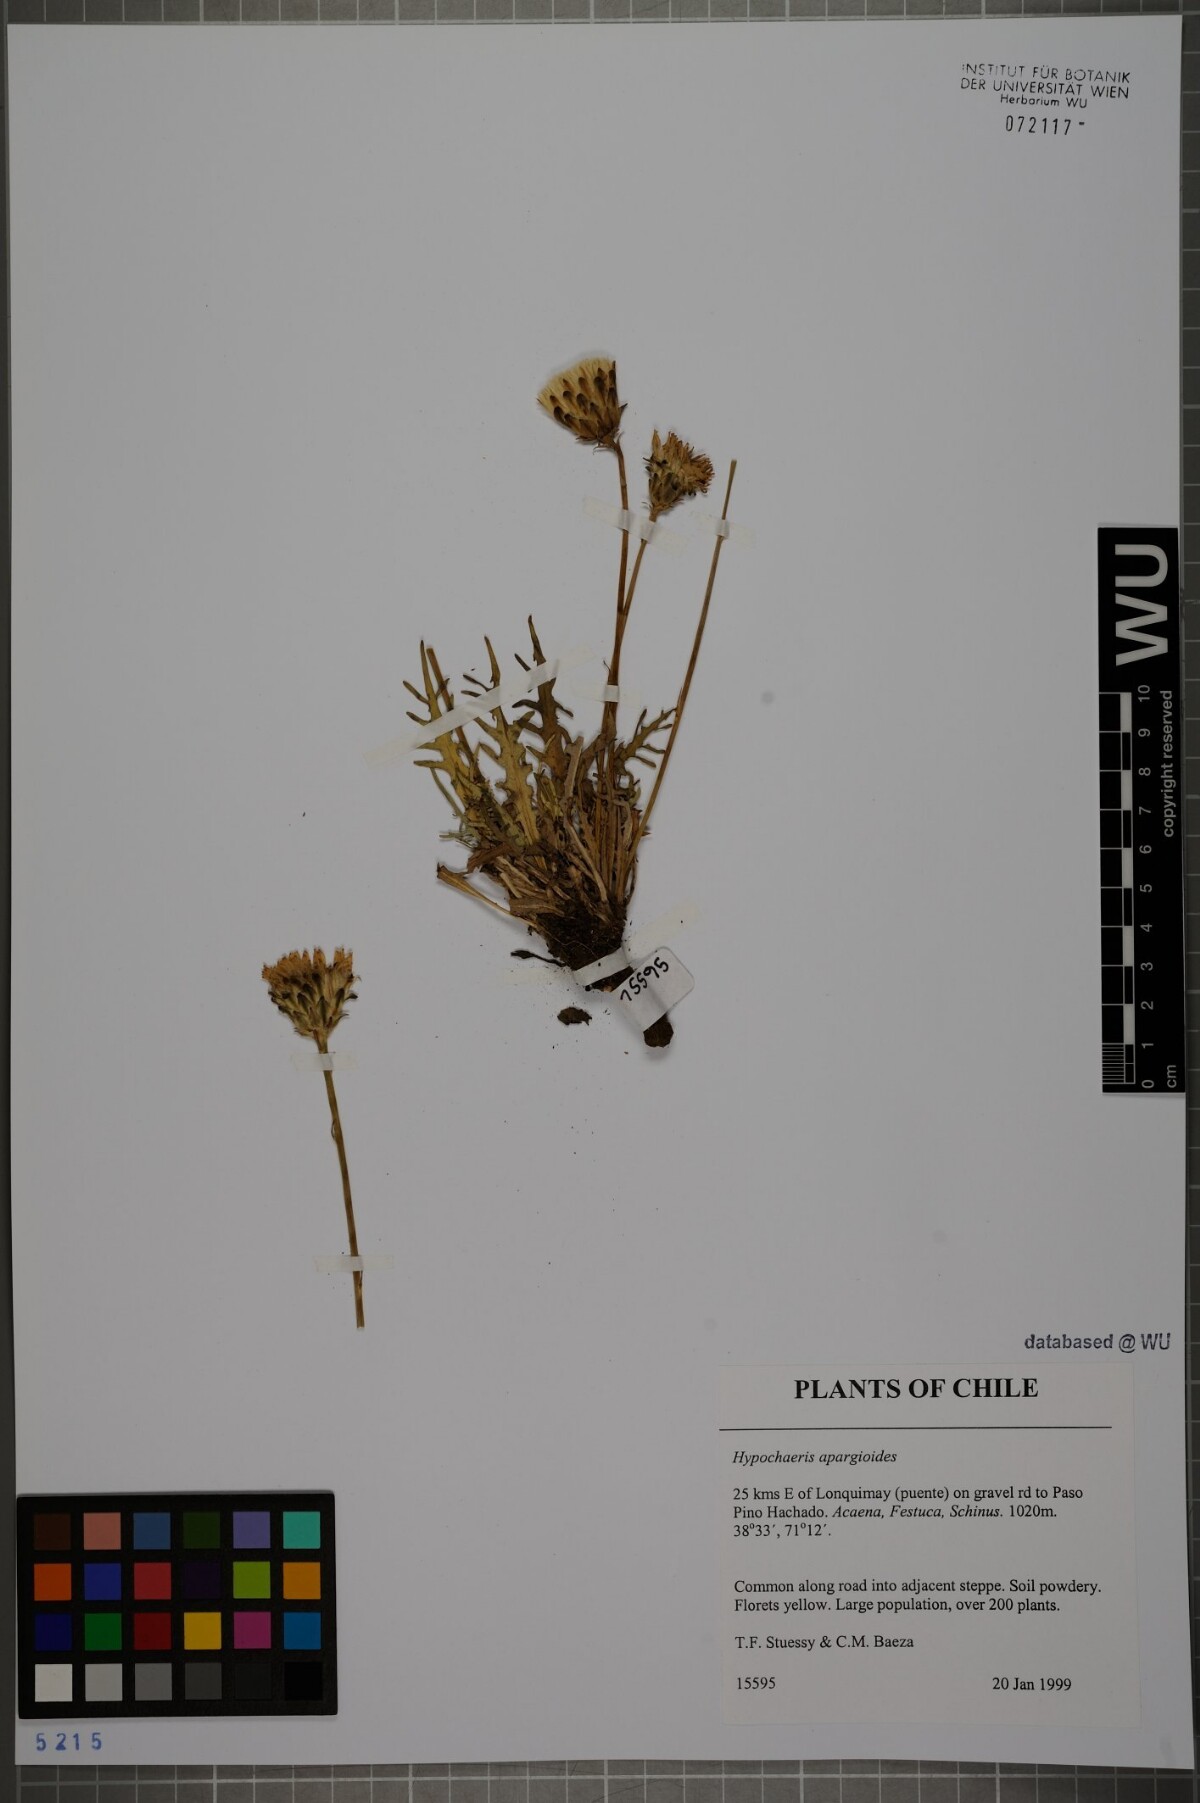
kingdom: Plantae
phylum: Tracheophyta
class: Magnoliopsida
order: Asterales
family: Asteraceae
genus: Hypochaeris
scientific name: Hypochaeris apargioides
